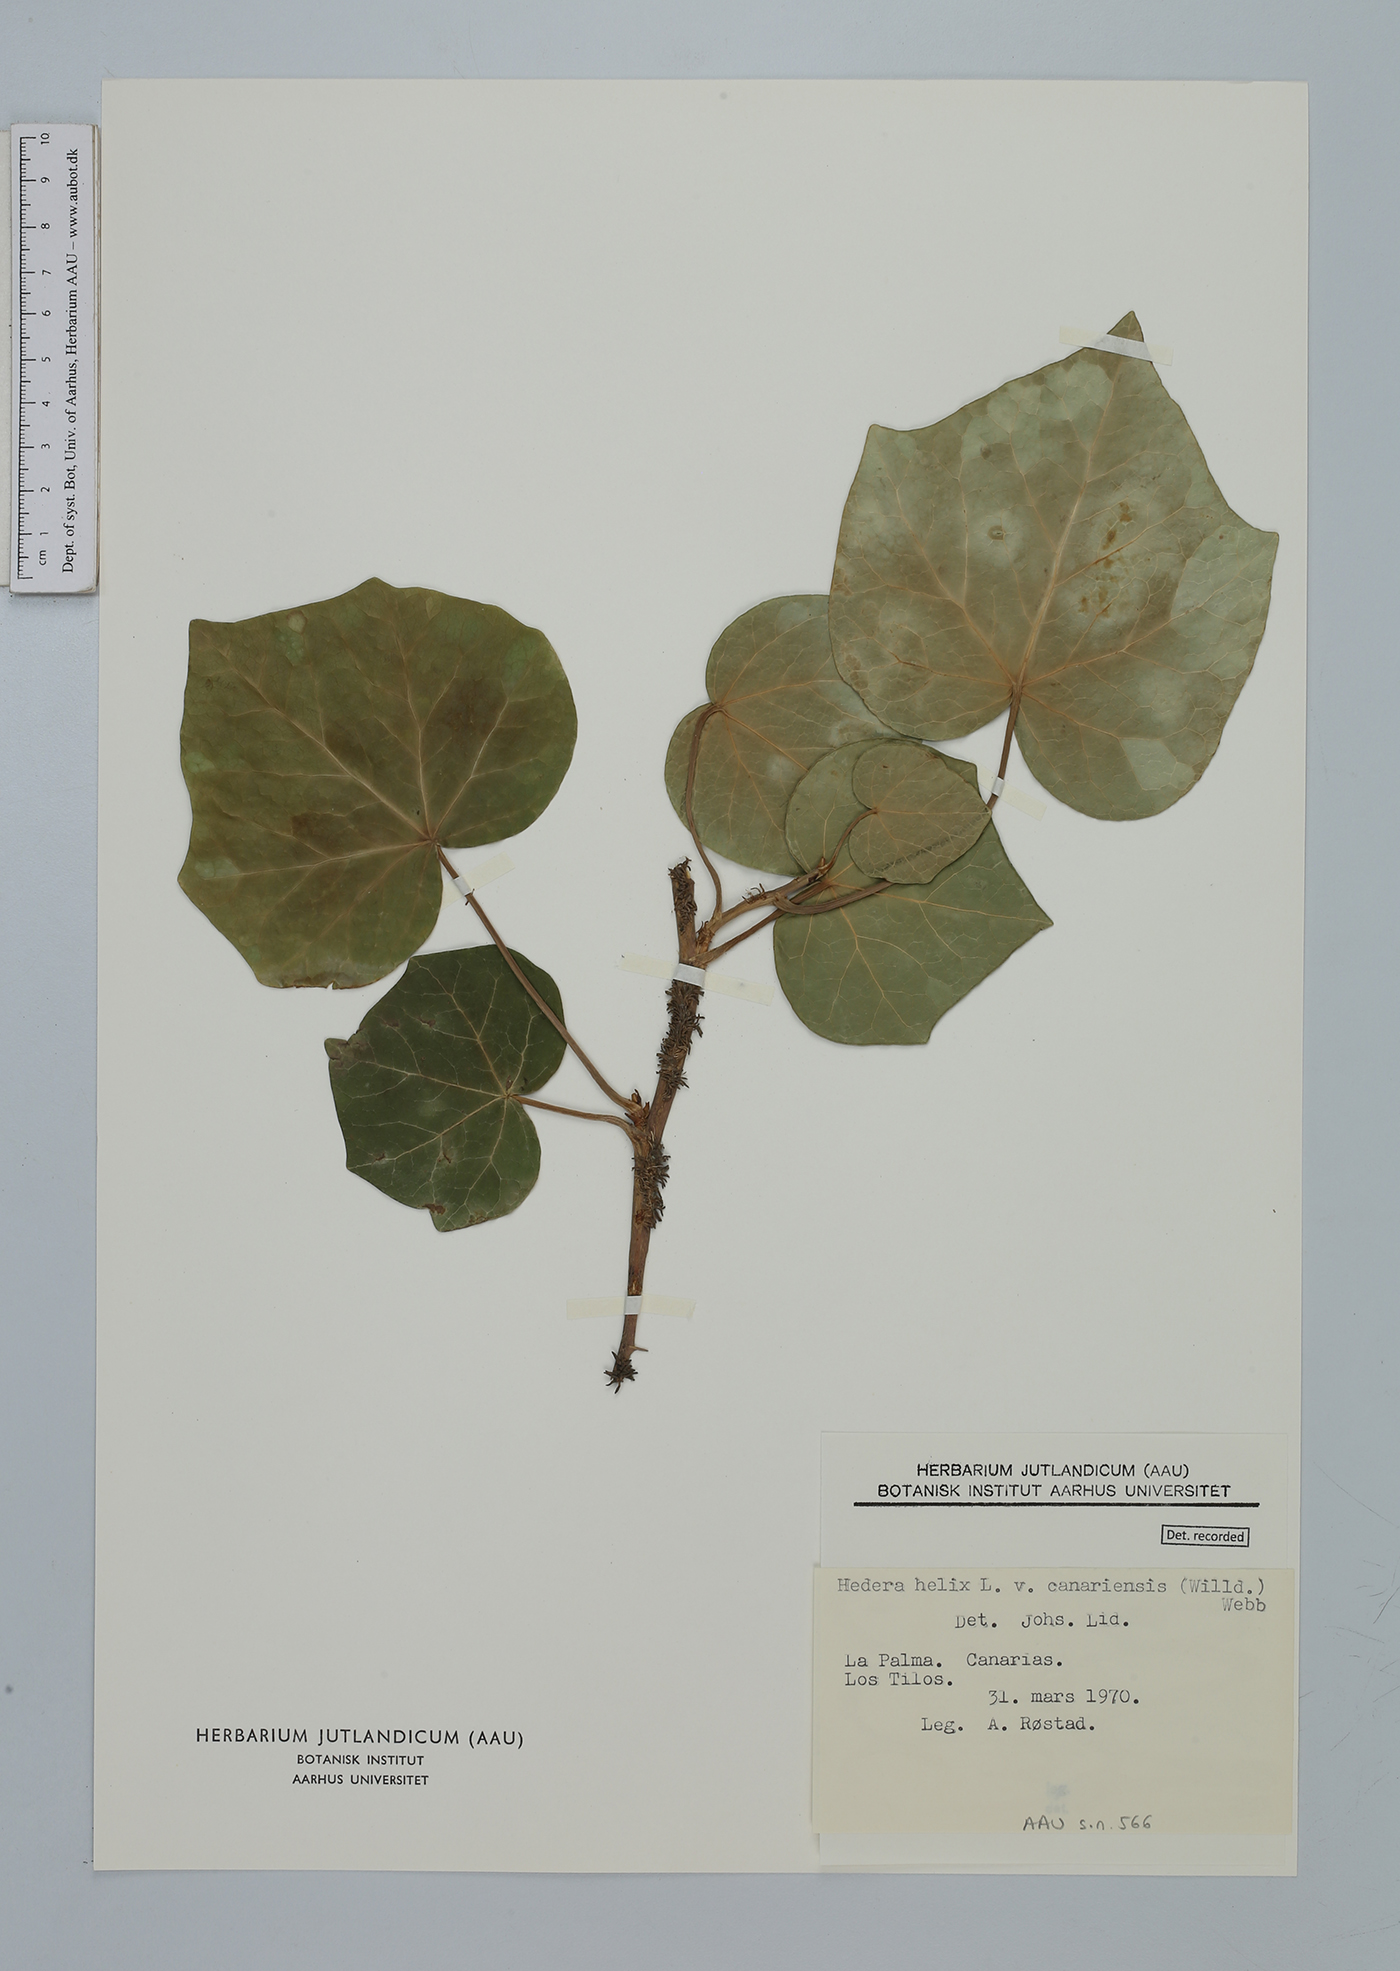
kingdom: Plantae
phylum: Tracheophyta
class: Magnoliopsida
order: Apiales
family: Araliaceae
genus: Hedera
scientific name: Hedera helix
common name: Ivy
